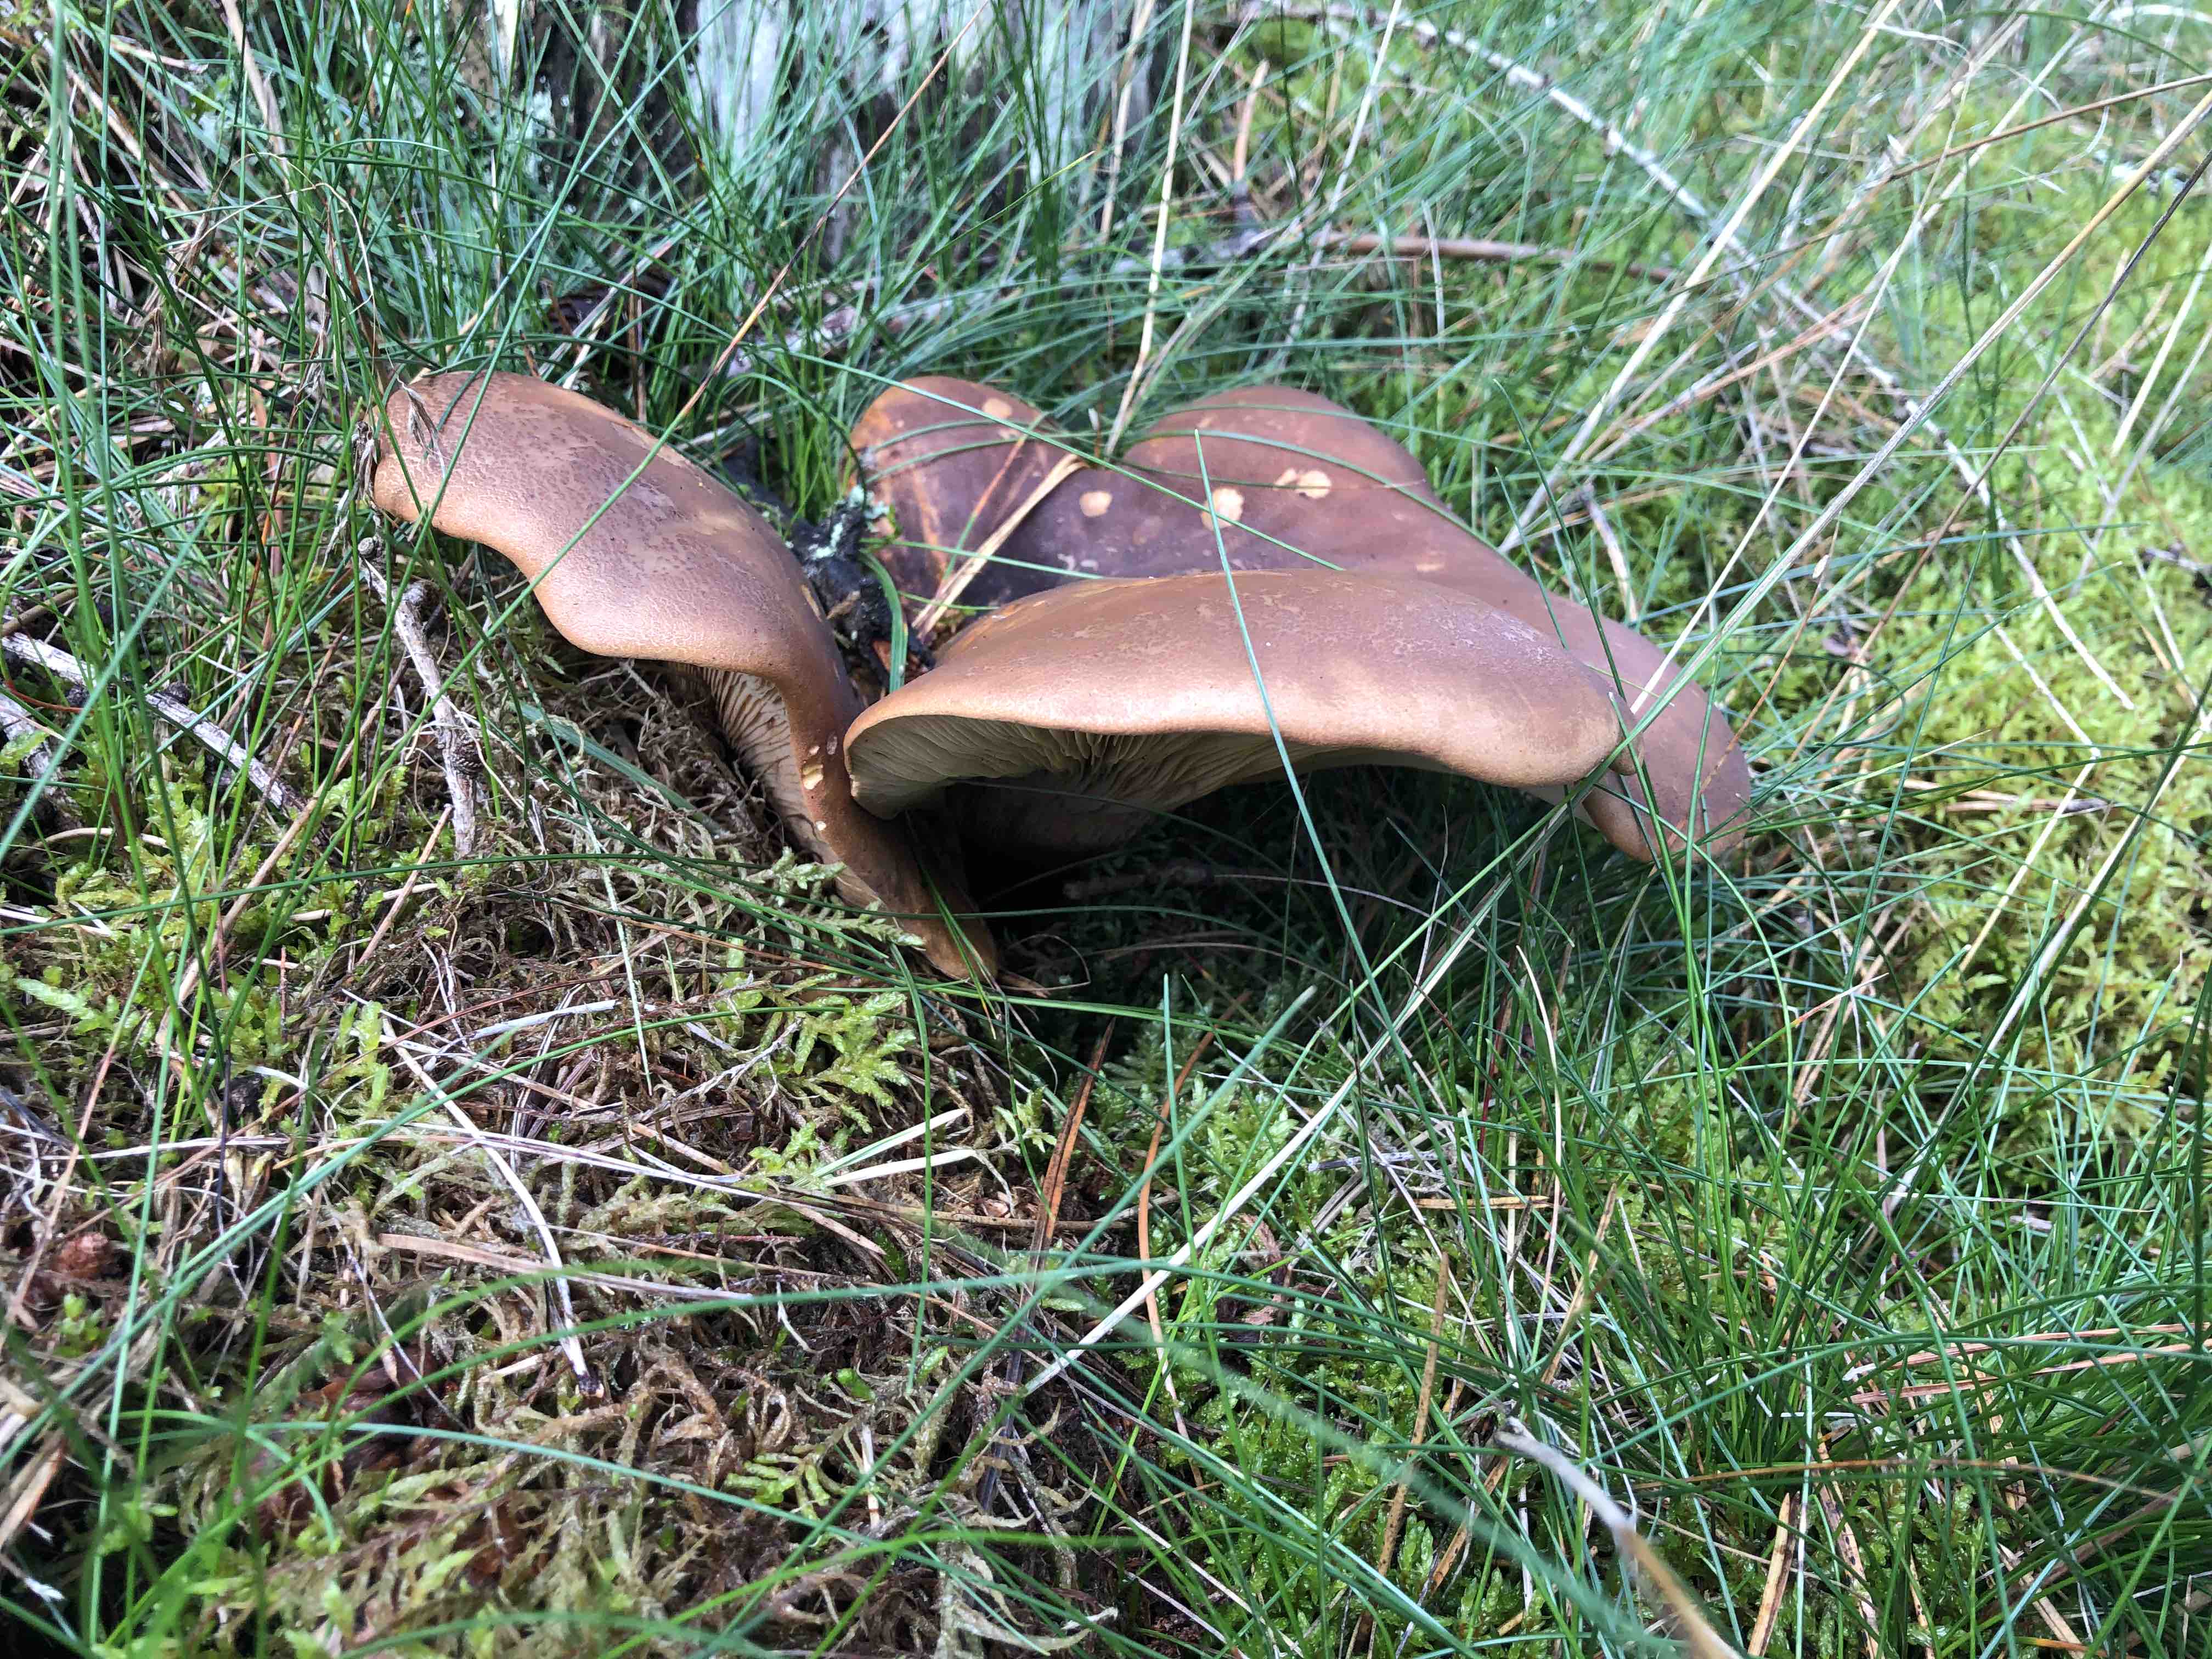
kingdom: Fungi
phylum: Basidiomycota
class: Agaricomycetes
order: Boletales
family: Tapinellaceae
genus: Tapinella
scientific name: Tapinella atrotomentosa
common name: sortfiltet viftesvamp
